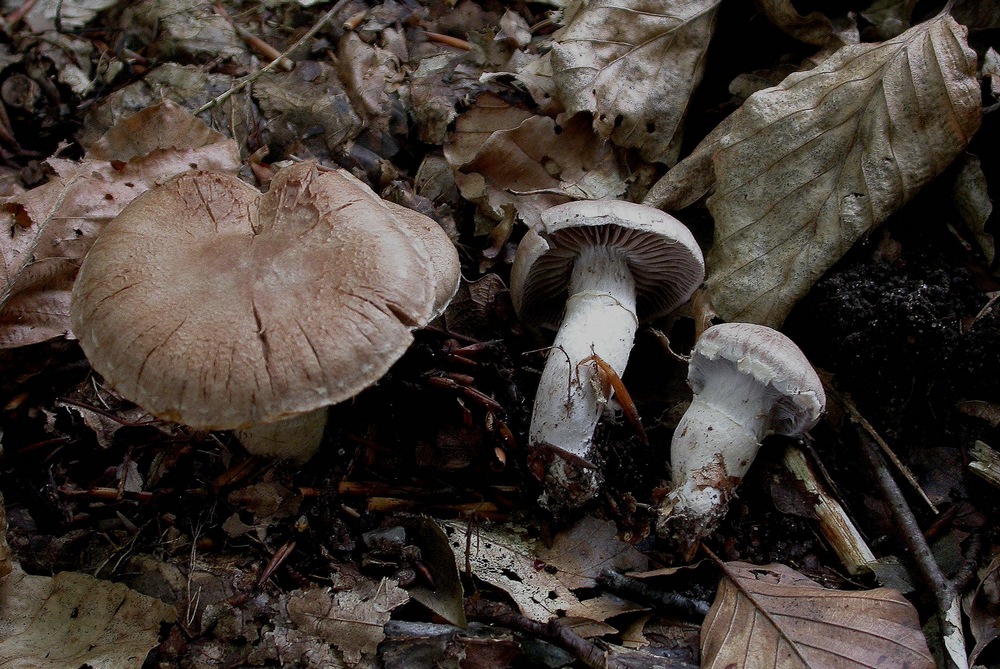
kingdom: Fungi
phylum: Basidiomycota
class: Agaricomycetes
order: Agaricales
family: Cortinariaceae
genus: Cortinarius
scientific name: Cortinarius torvus
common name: champignonagtig slørhat
